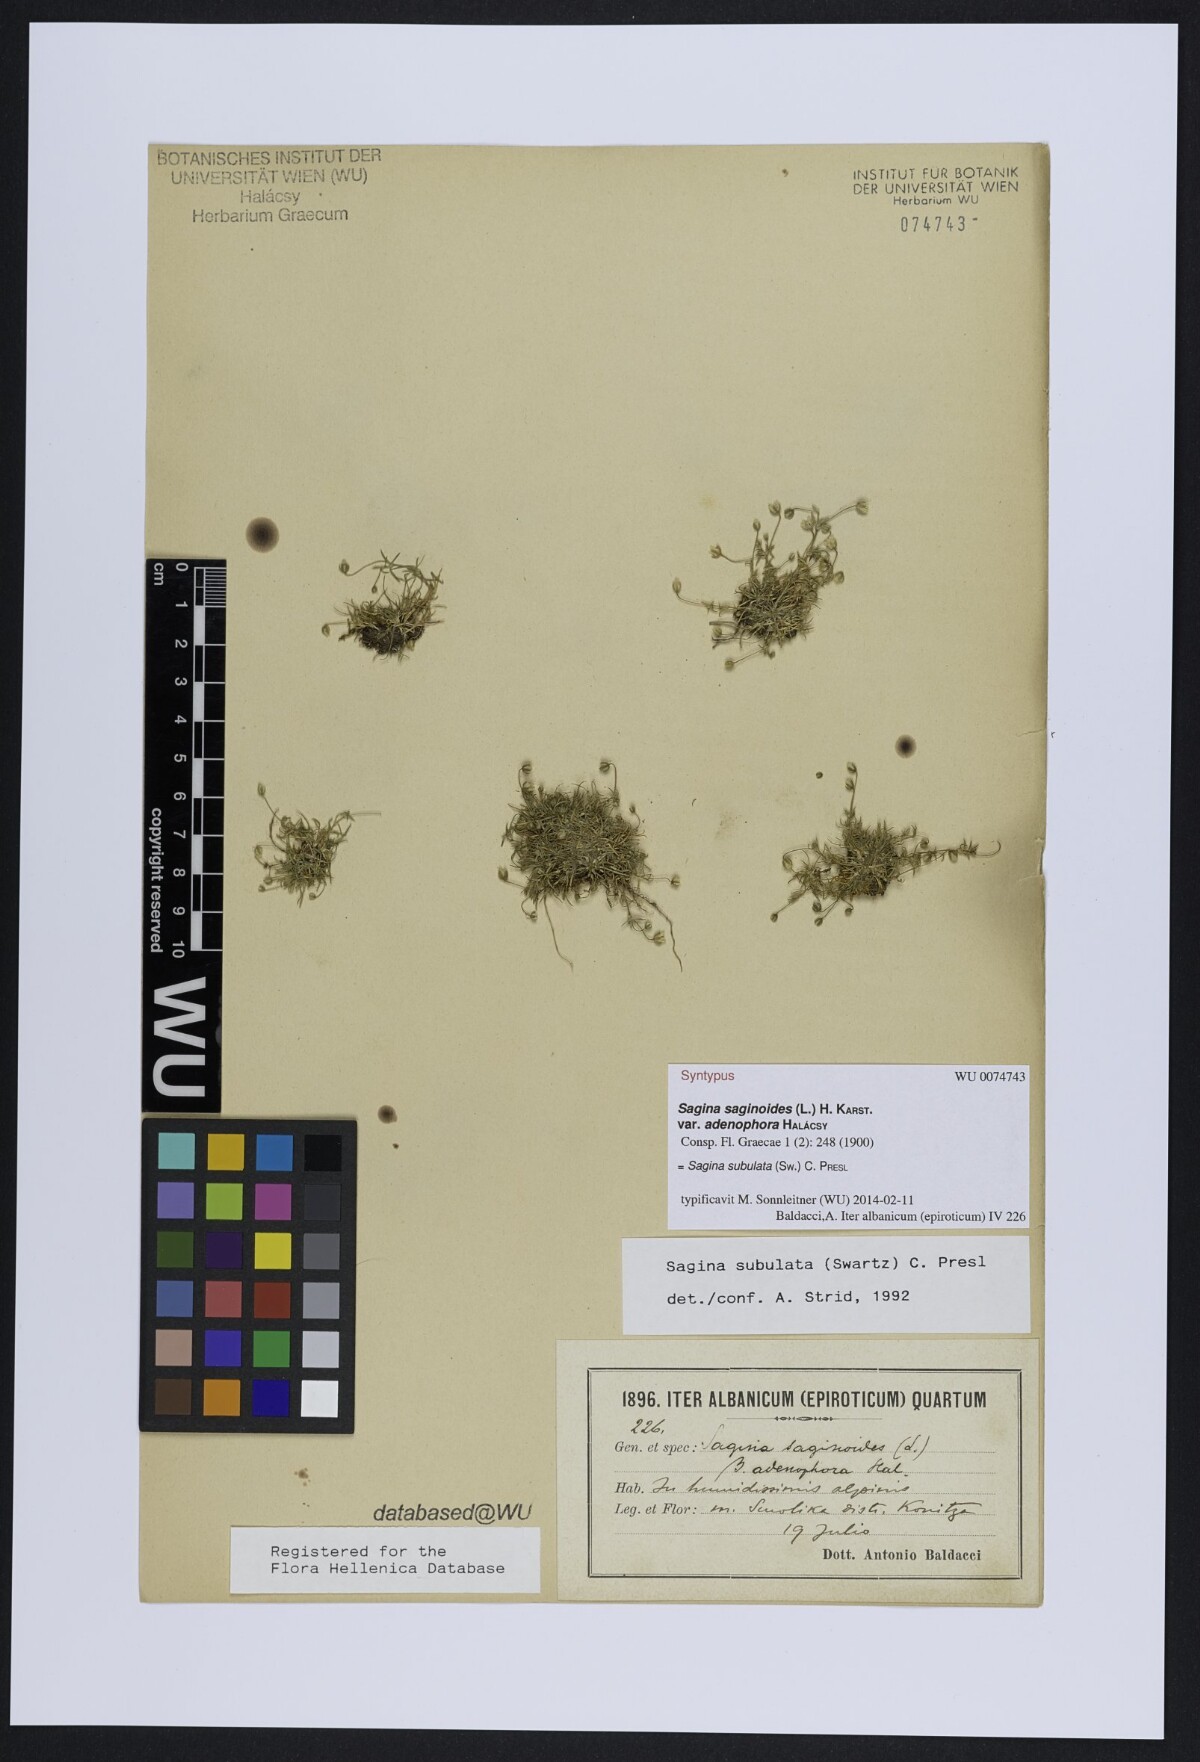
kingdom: Plantae
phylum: Tracheophyta
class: Magnoliopsida
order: Caryophyllales
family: Caryophyllaceae
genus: Sagina
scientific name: Sagina alexandrae
